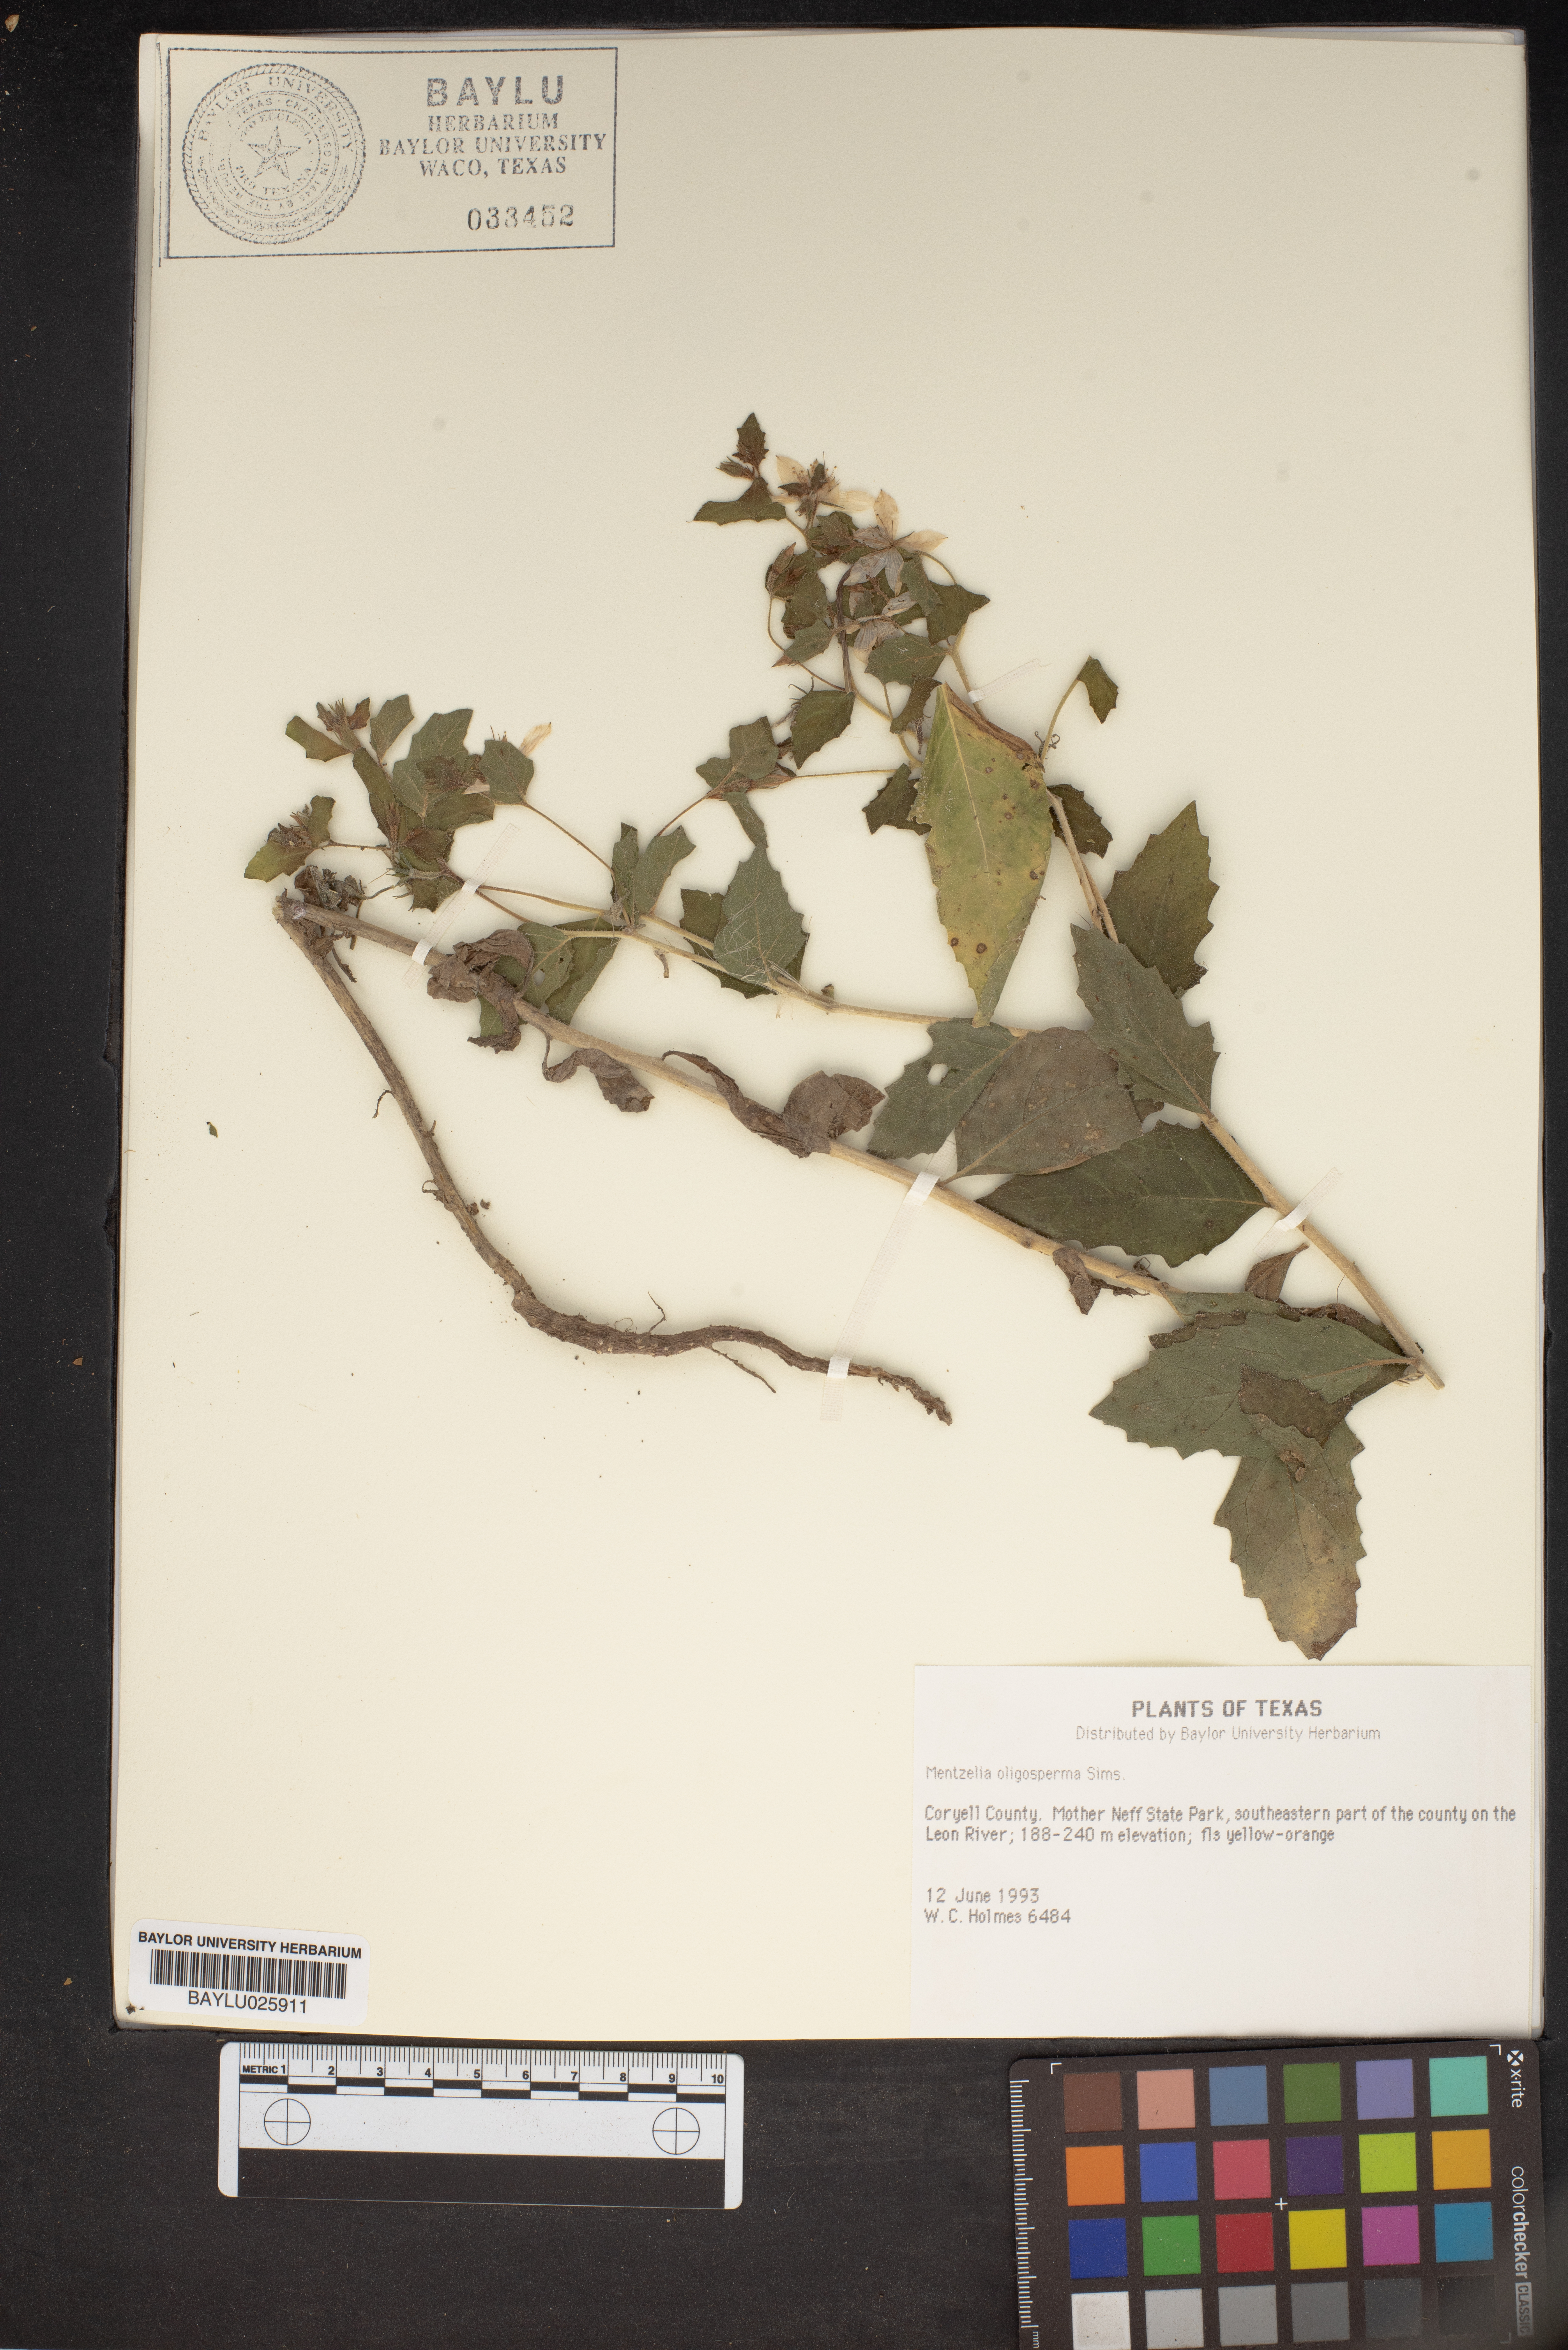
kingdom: Plantae
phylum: Tracheophyta
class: Magnoliopsida
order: Cornales
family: Loasaceae
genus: Mentzelia
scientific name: Mentzelia oligosperma
